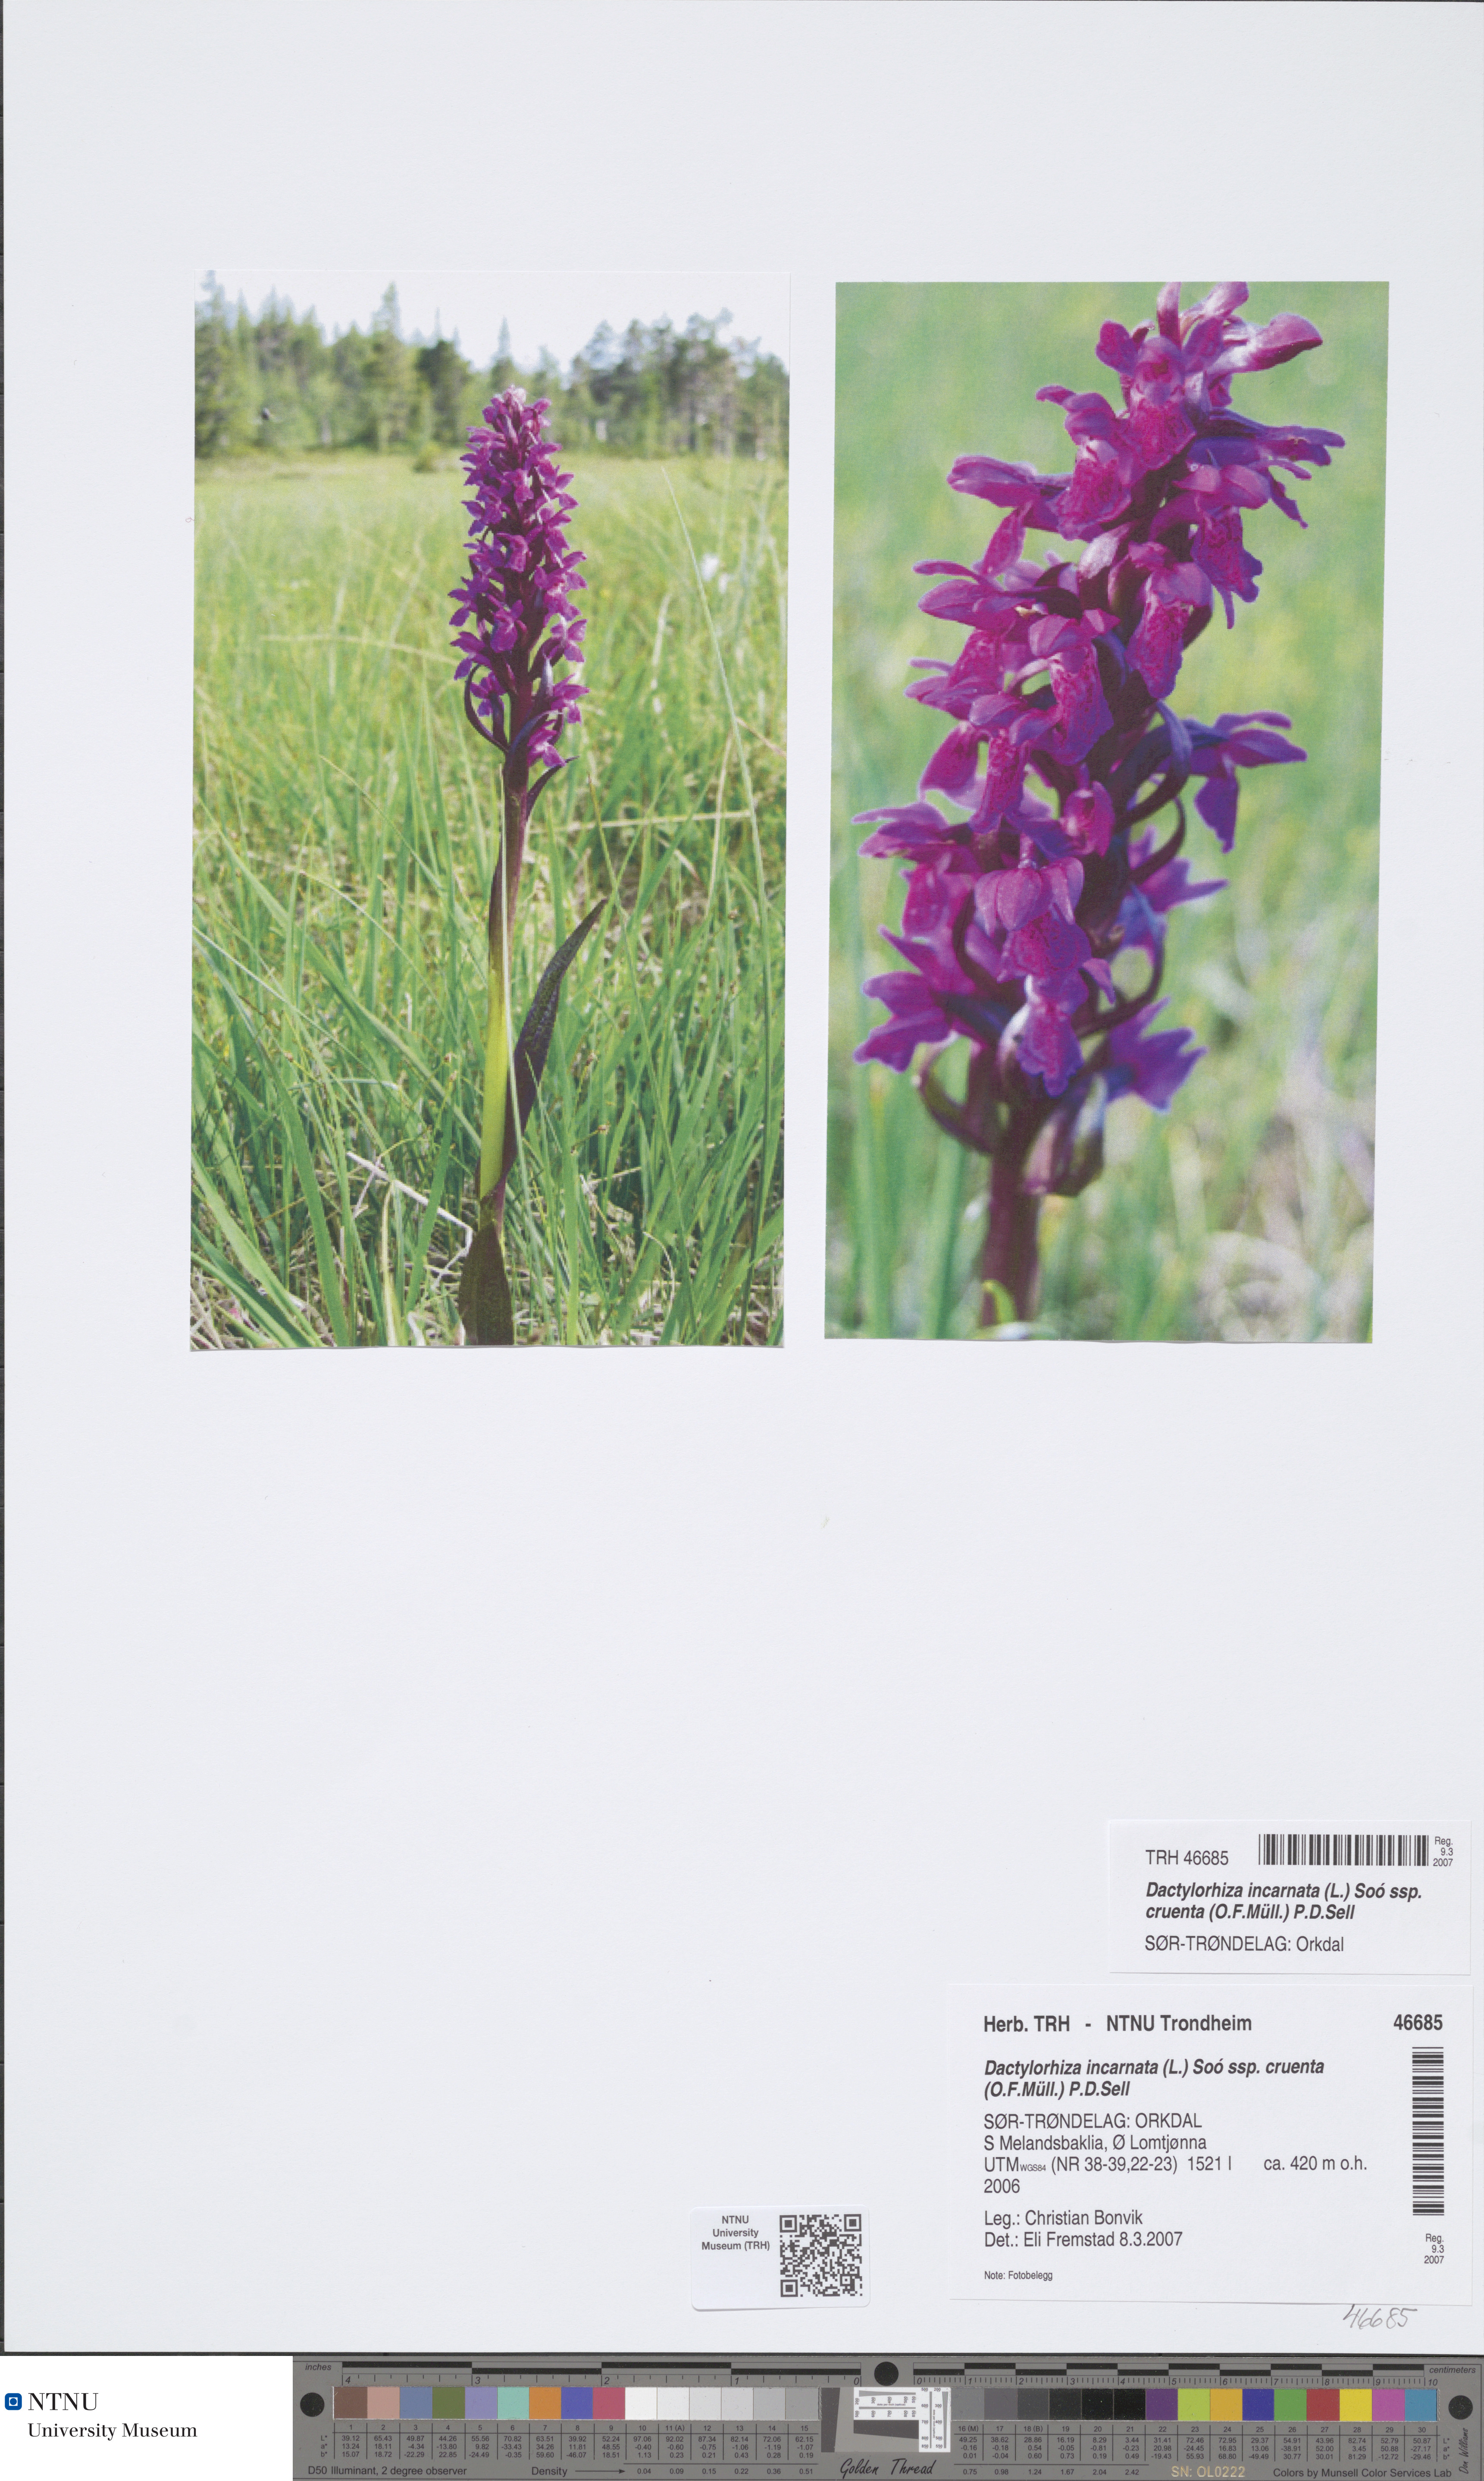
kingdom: Plantae
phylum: Tracheophyta
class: Liliopsida
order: Asparagales
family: Orchidaceae
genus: Dactylorhiza
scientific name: Dactylorhiza incarnata
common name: Early marsh-orchid
